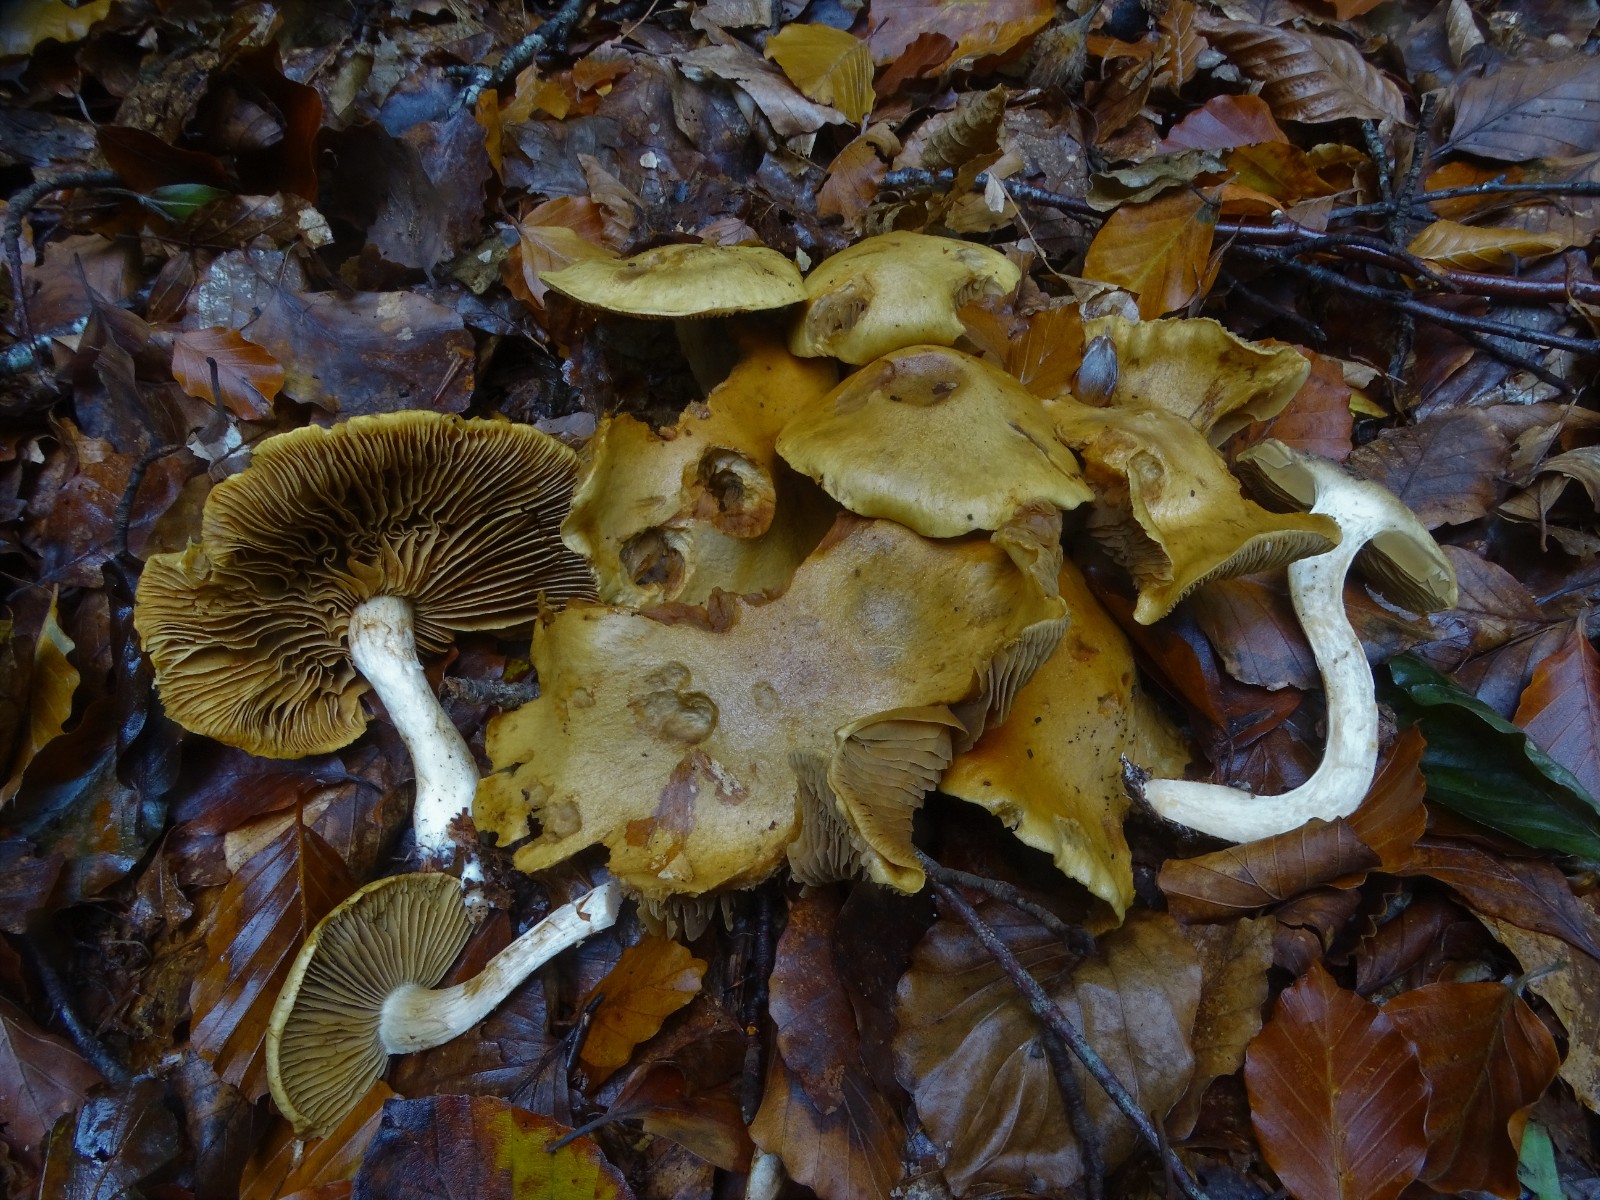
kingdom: Fungi
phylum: Basidiomycota
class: Agaricomycetes
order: Agaricales
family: Cortinariaceae
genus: Cortinarius
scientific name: Cortinarius subtortus
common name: olivengul slørhat
